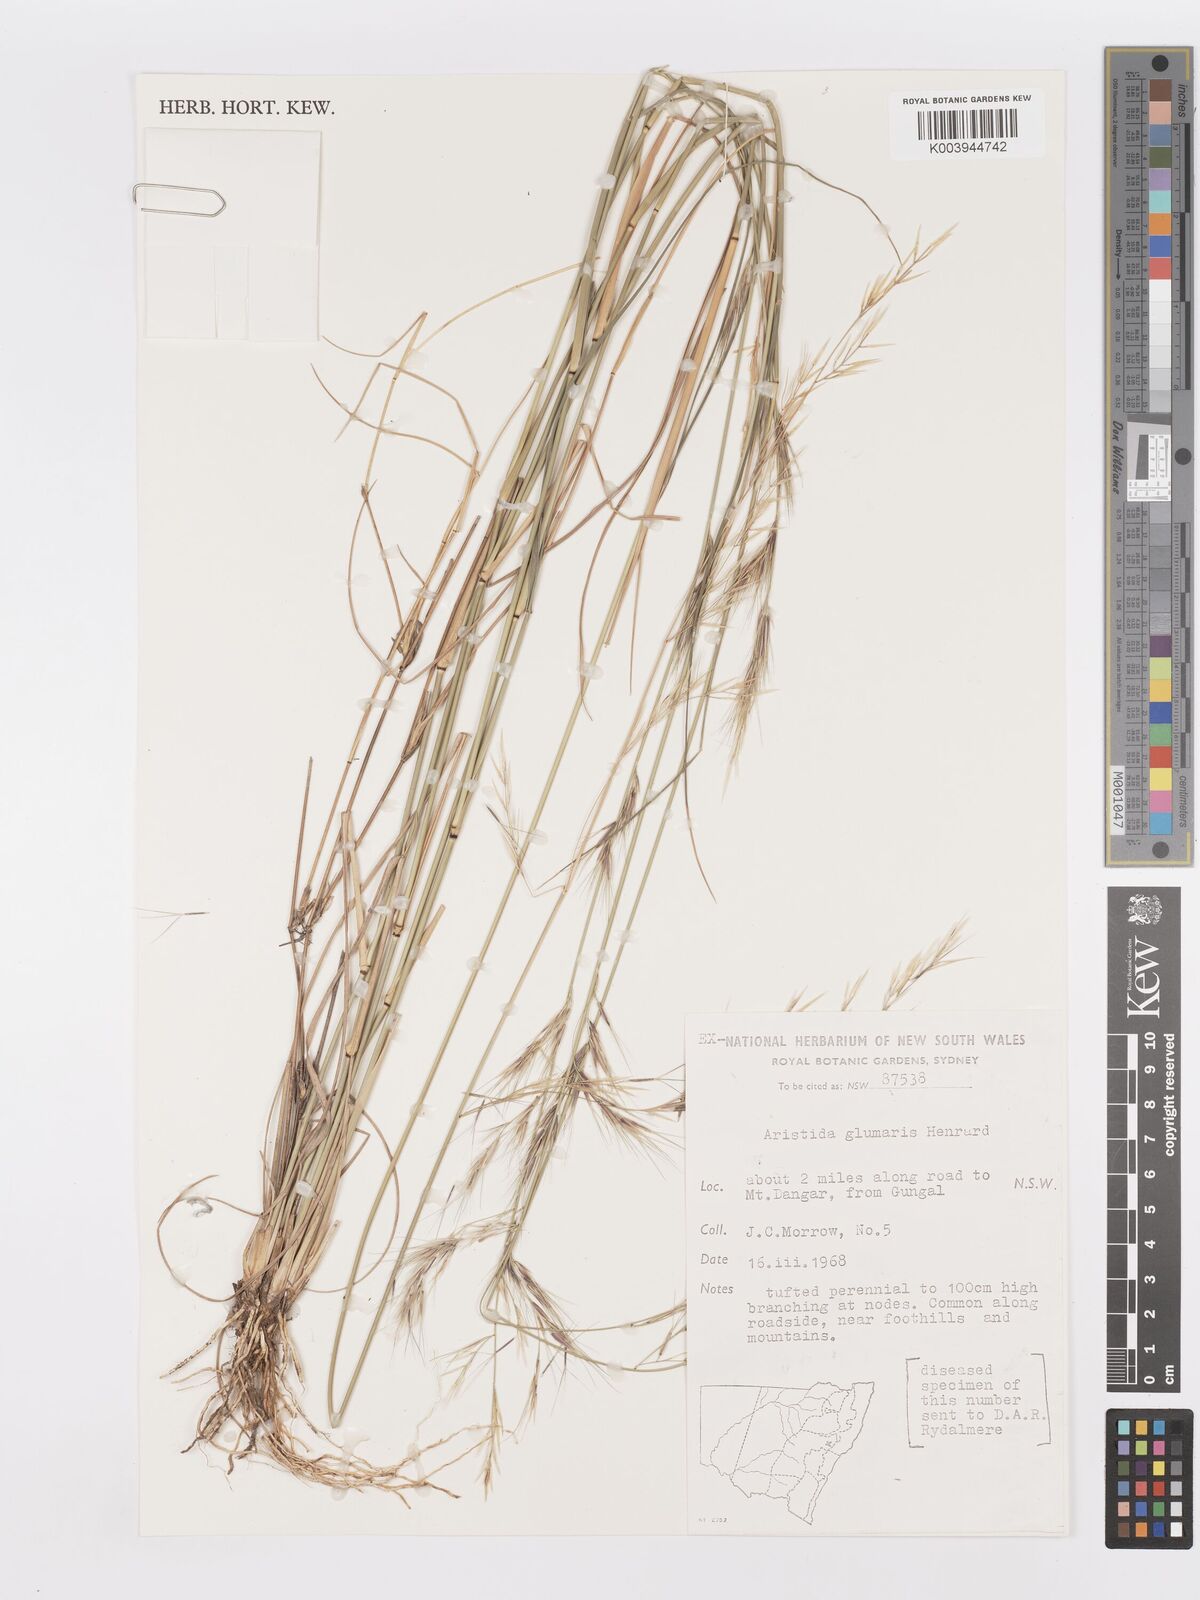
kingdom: Plantae
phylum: Tracheophyta
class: Liliopsida
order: Poales
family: Poaceae
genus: Aristida
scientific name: Aristida calycina
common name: Dark wire grass
